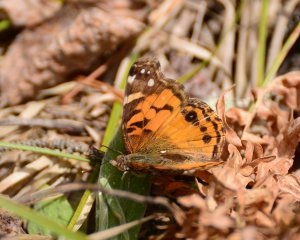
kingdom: Animalia
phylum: Arthropoda
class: Insecta
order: Lepidoptera
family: Nymphalidae
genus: Vanessa
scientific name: Vanessa virginiensis
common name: American Lady
